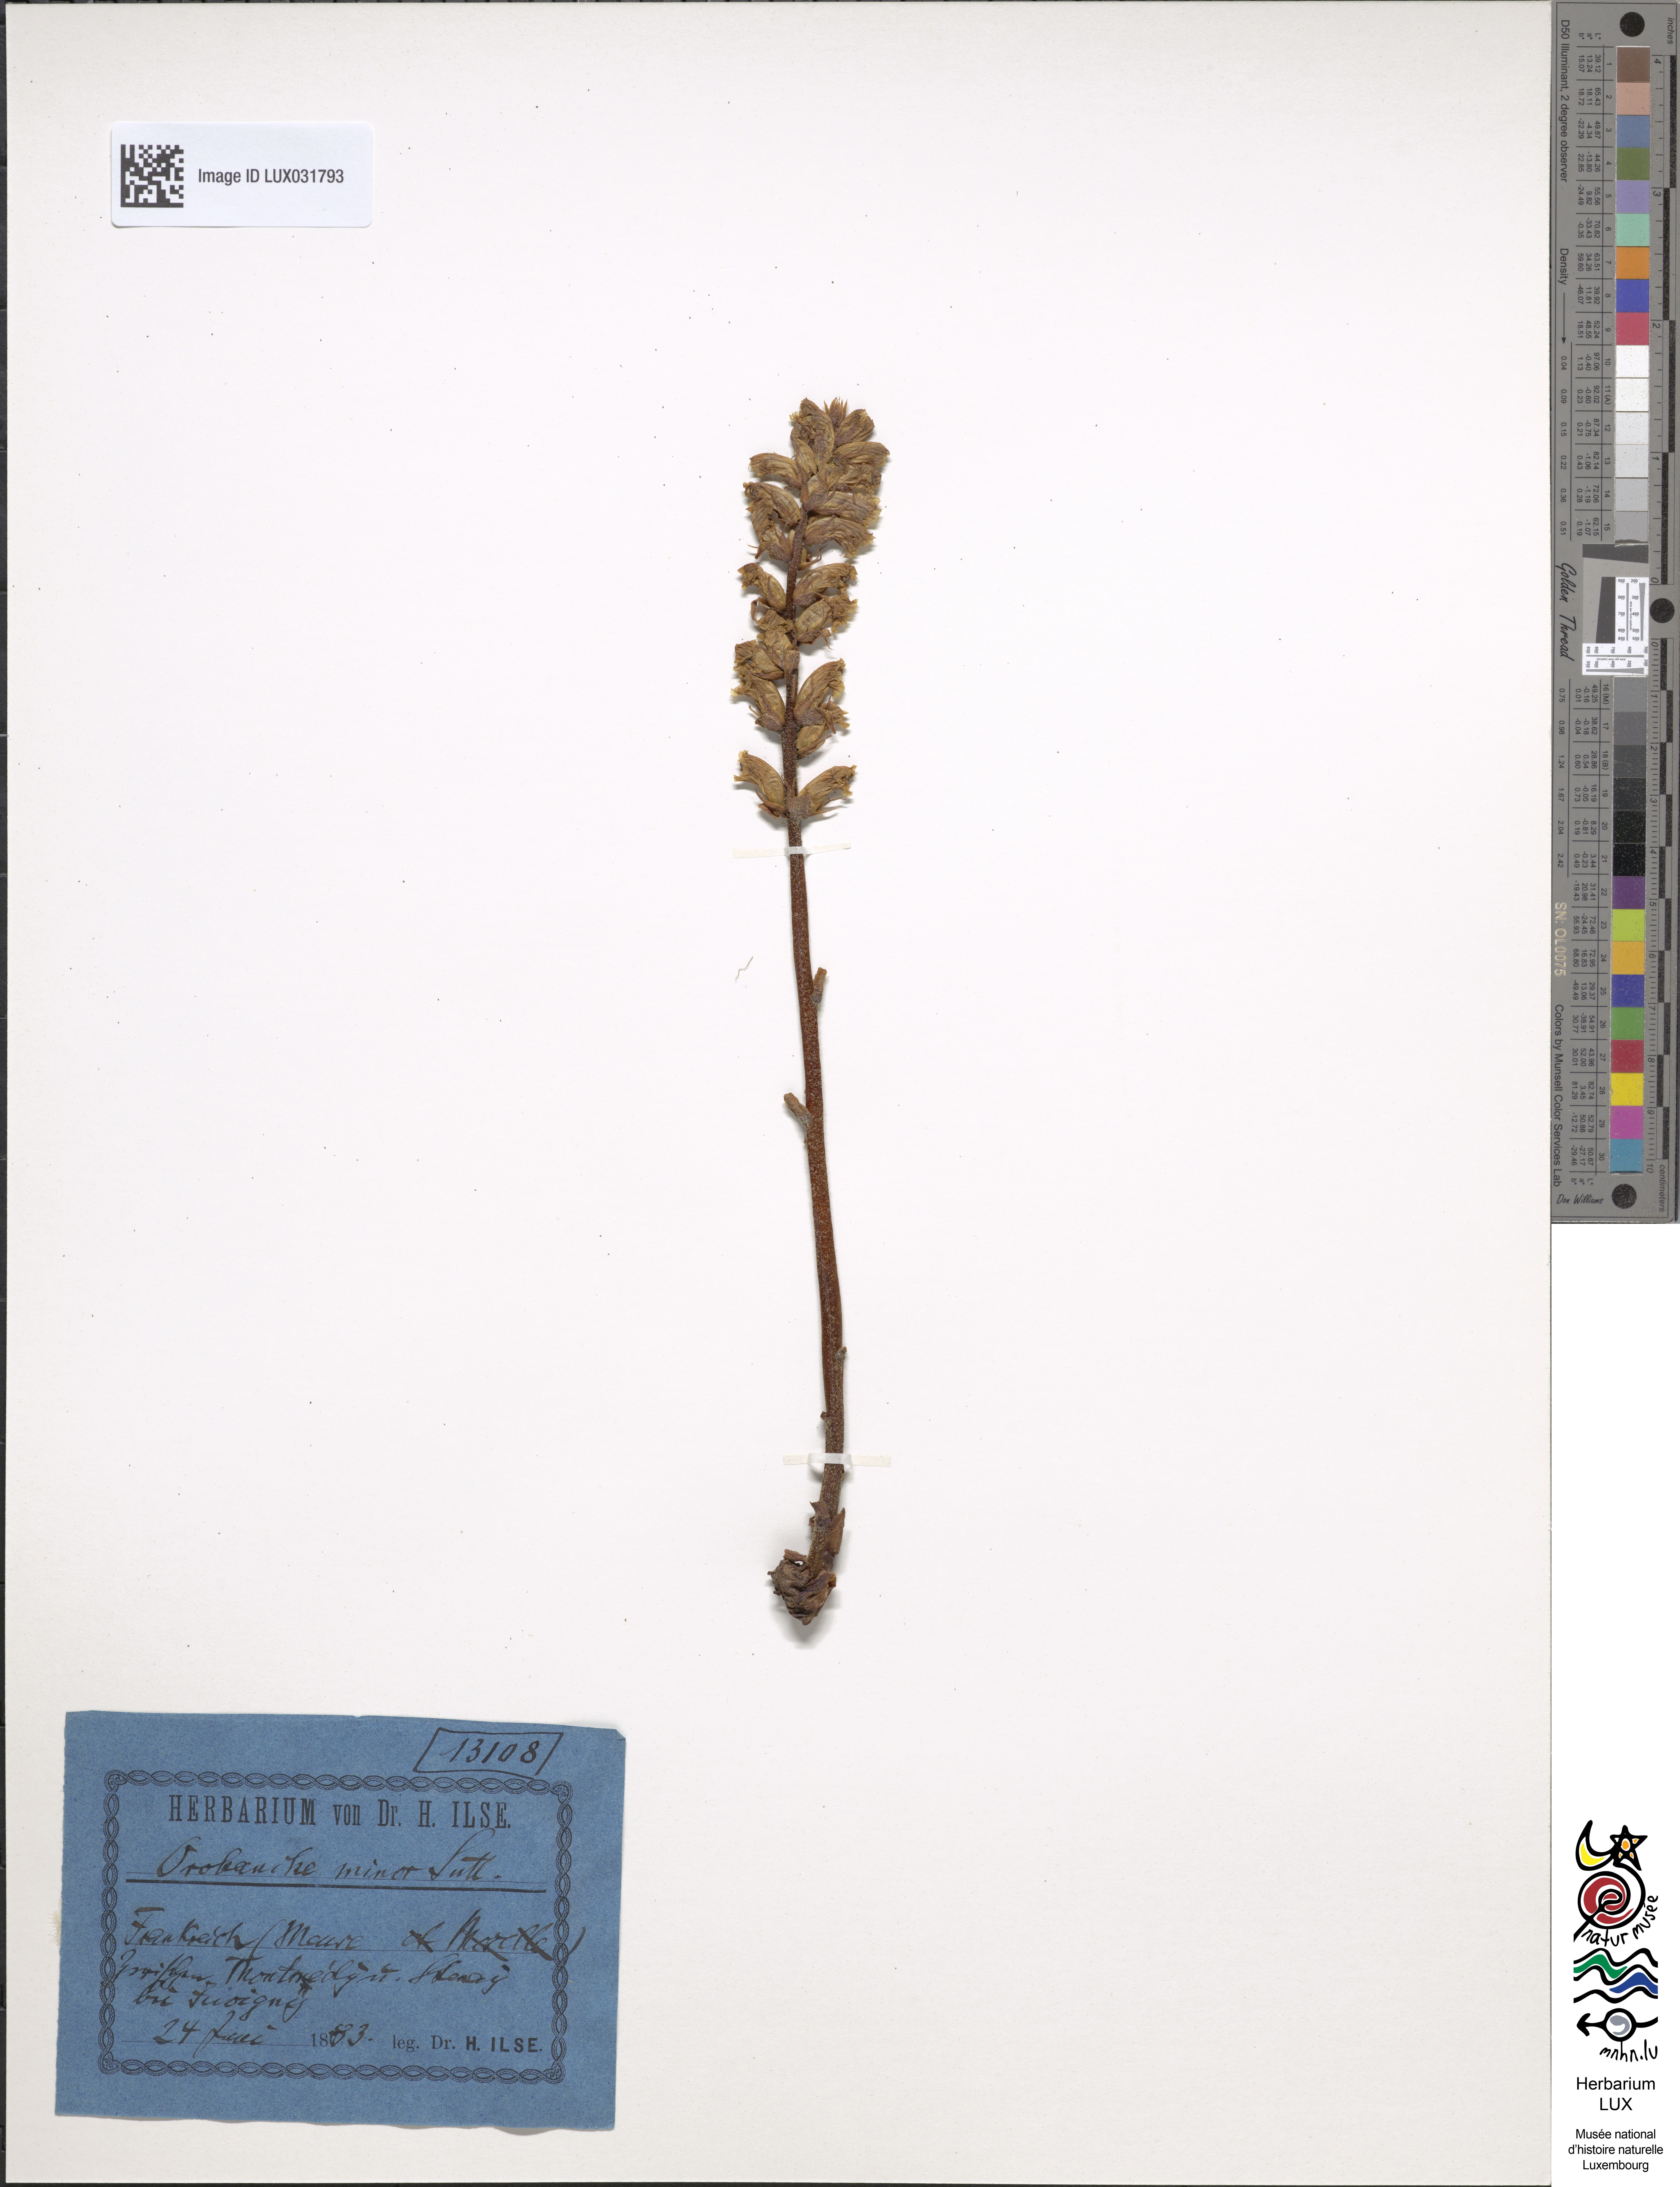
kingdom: Plantae
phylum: Tracheophyta
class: Magnoliopsida
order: Lamiales
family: Orobanchaceae
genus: Orobanche
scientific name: Orobanche minor
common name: Common broomrape
